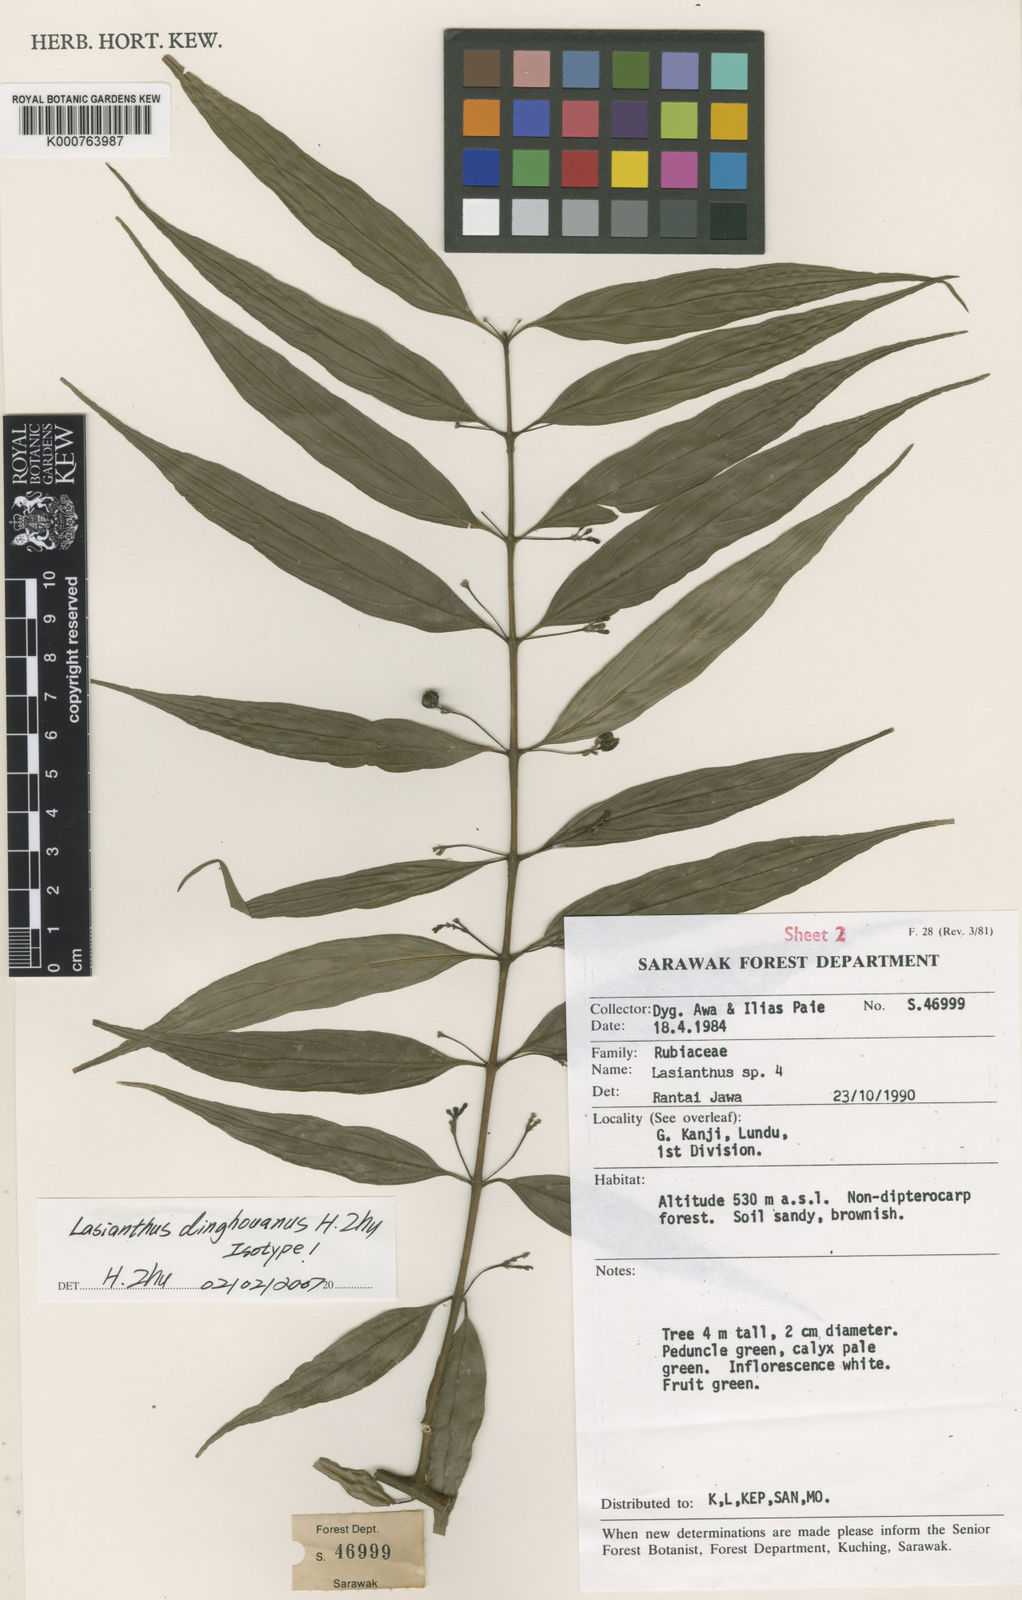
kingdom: Plantae
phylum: Tracheophyta
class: Magnoliopsida
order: Gentianales
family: Rubiaceae
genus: Lasianthus
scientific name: Lasianthus dinghouanus
